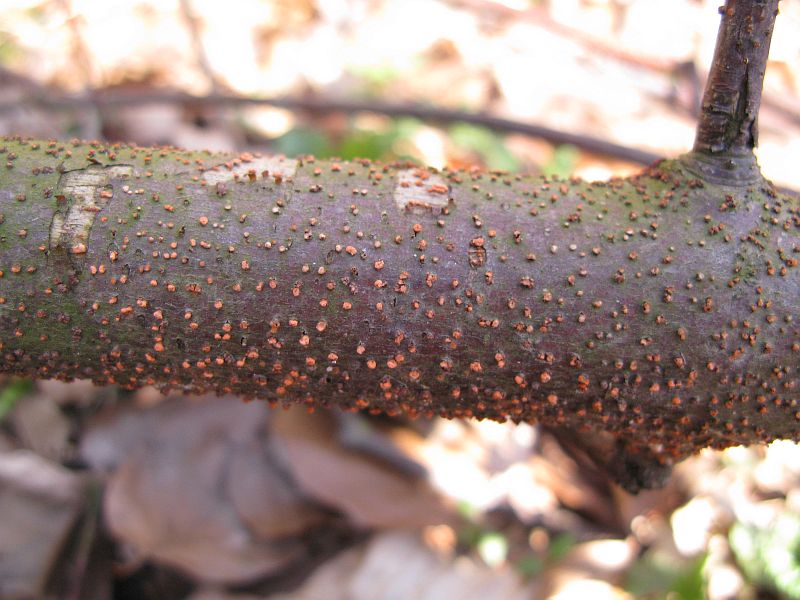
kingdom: Fungi
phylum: Ascomycota
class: Sordariomycetes
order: Hypocreales
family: Nectriaceae
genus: Nectria
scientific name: Nectria cinnabarina
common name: almindelig cinnobersvamp
